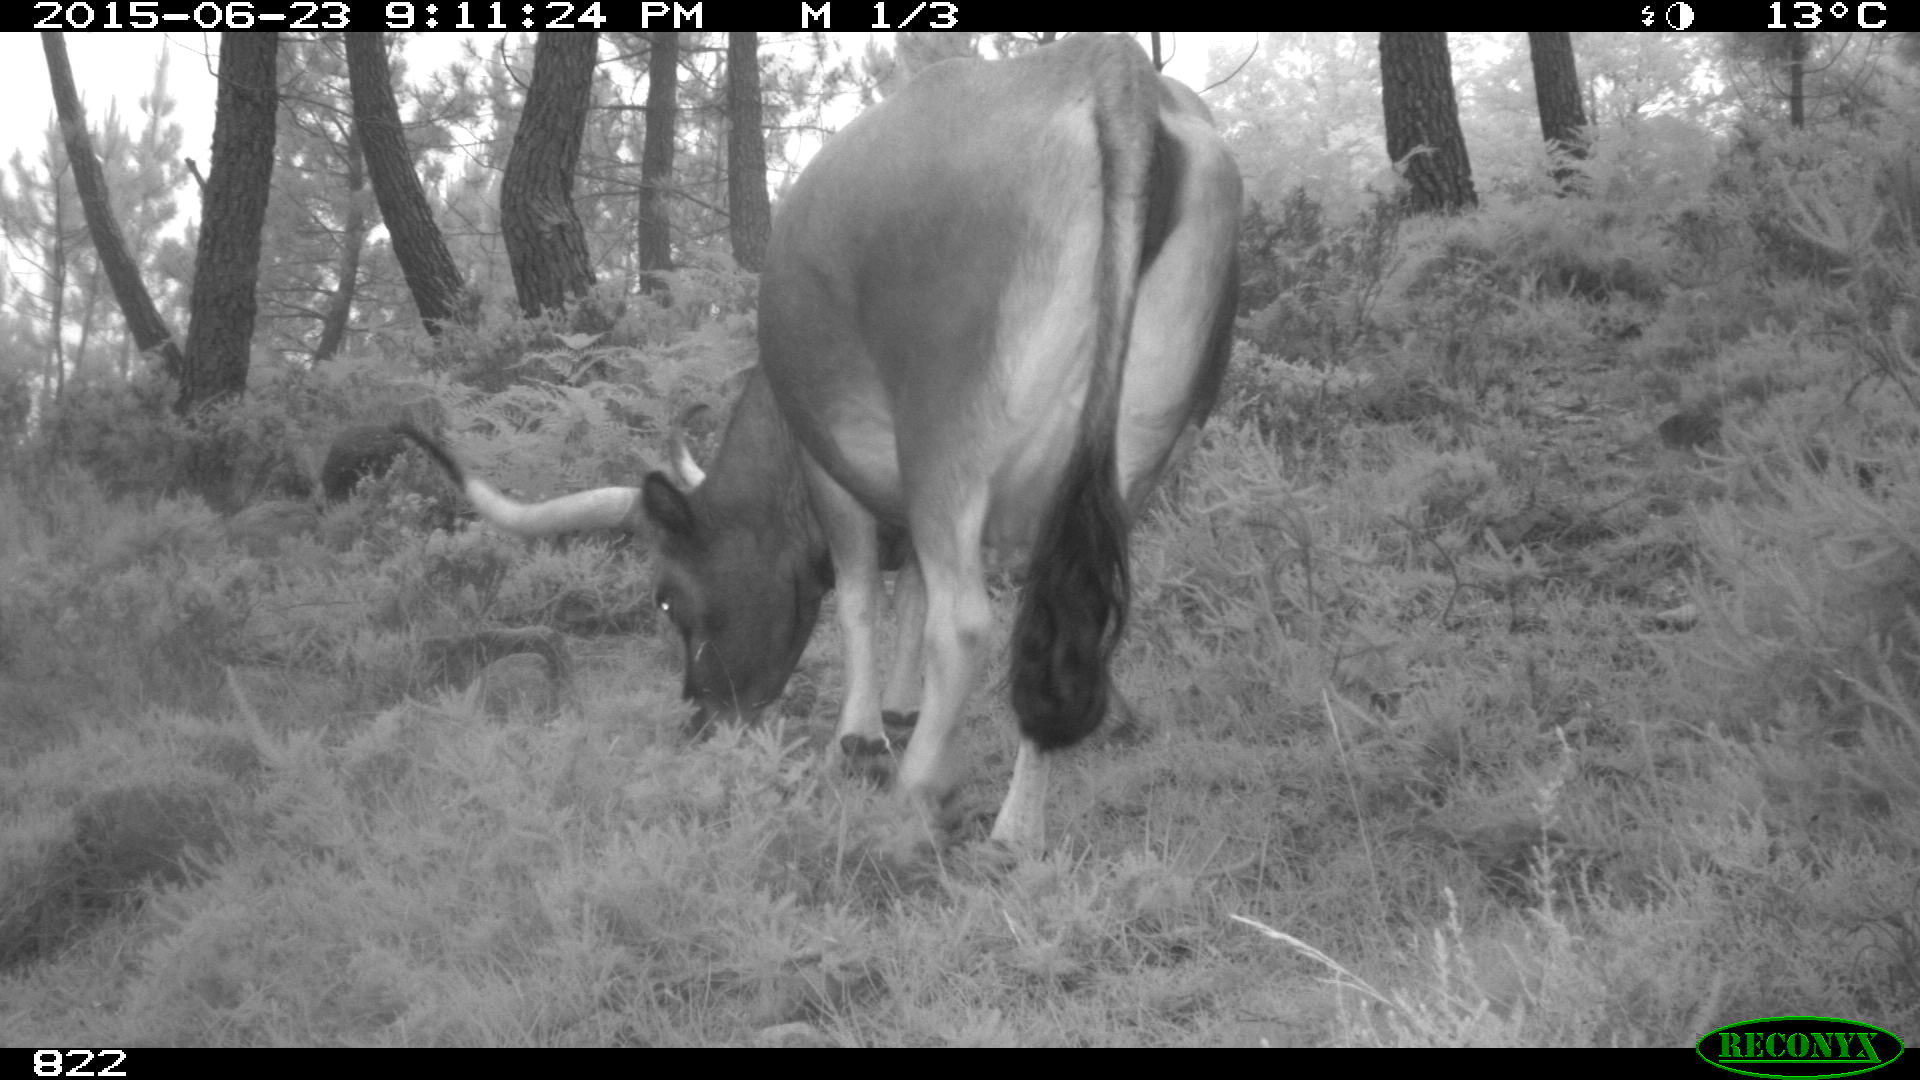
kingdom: Animalia
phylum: Chordata
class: Mammalia
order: Artiodactyla
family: Bovidae
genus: Bos
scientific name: Bos taurus
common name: Domesticated cattle
